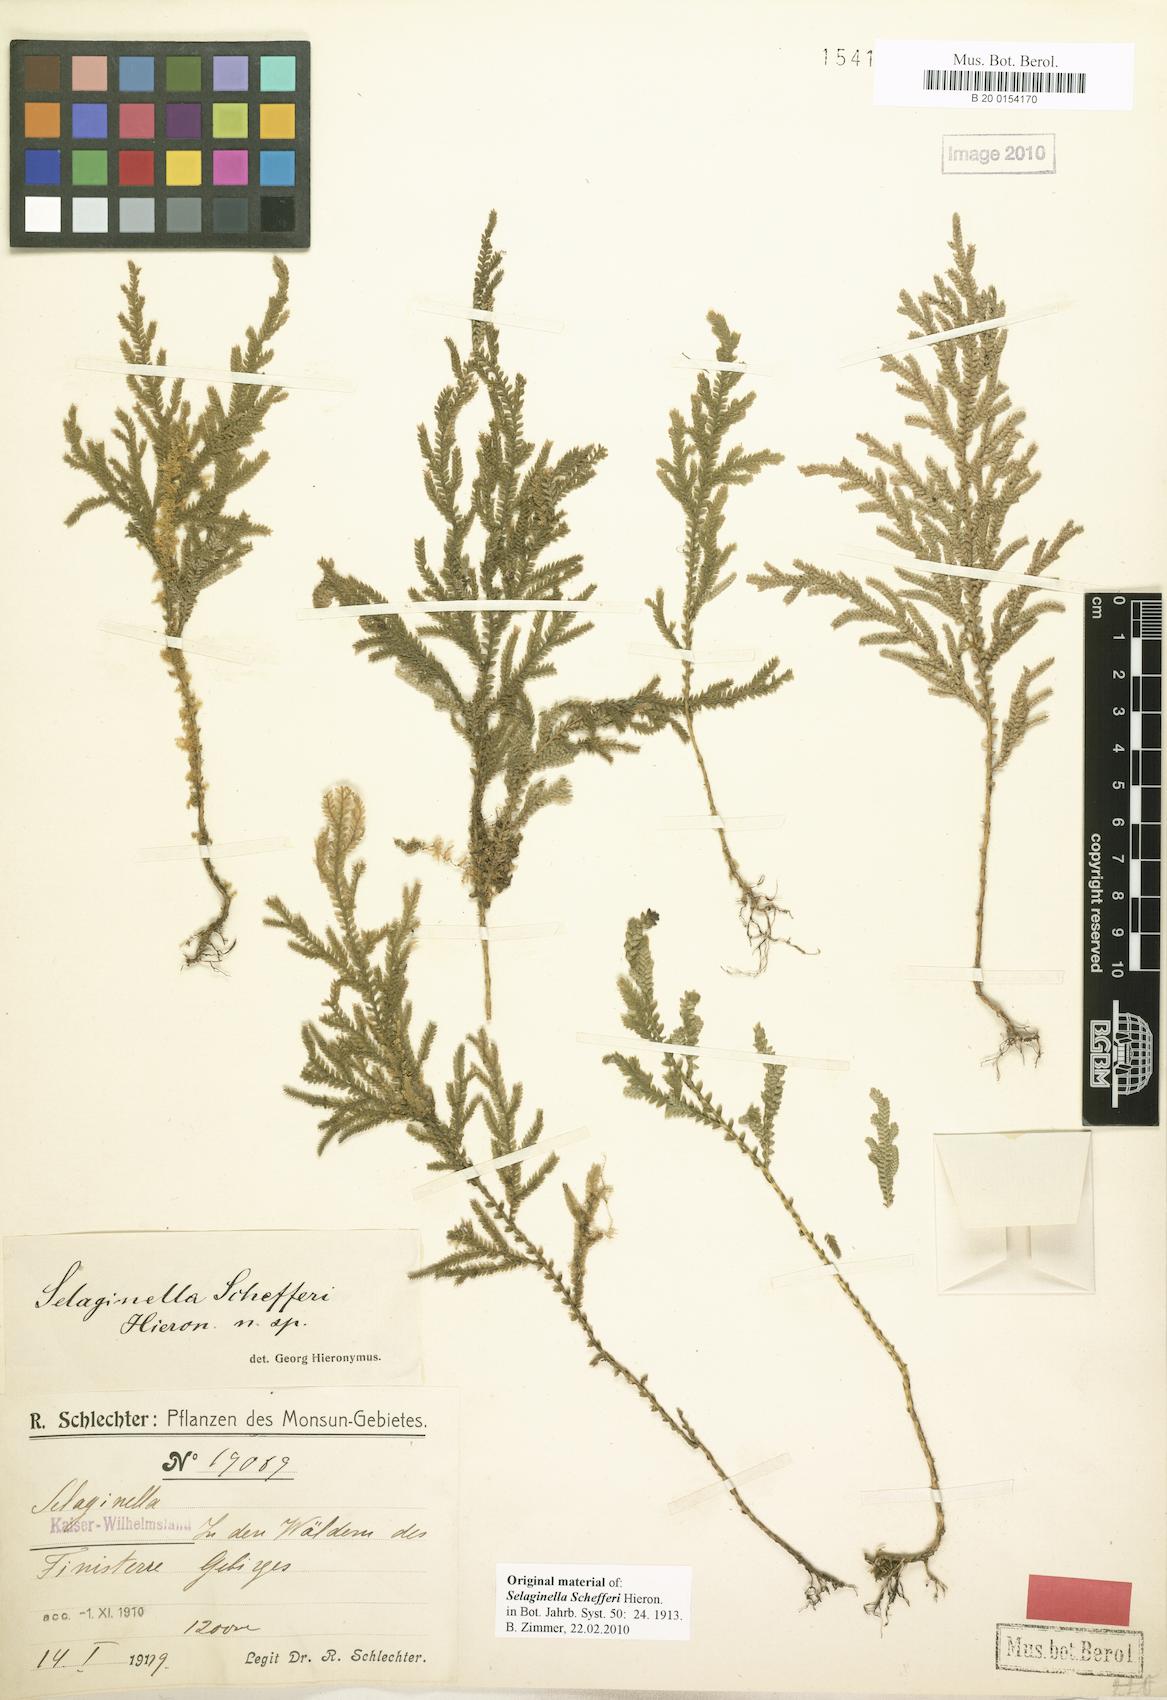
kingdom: Plantae
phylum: Tracheophyta
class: Lycopodiopsida
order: Selaginellales
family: Selaginellaceae
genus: Selaginella
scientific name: Selaginella schefferi
